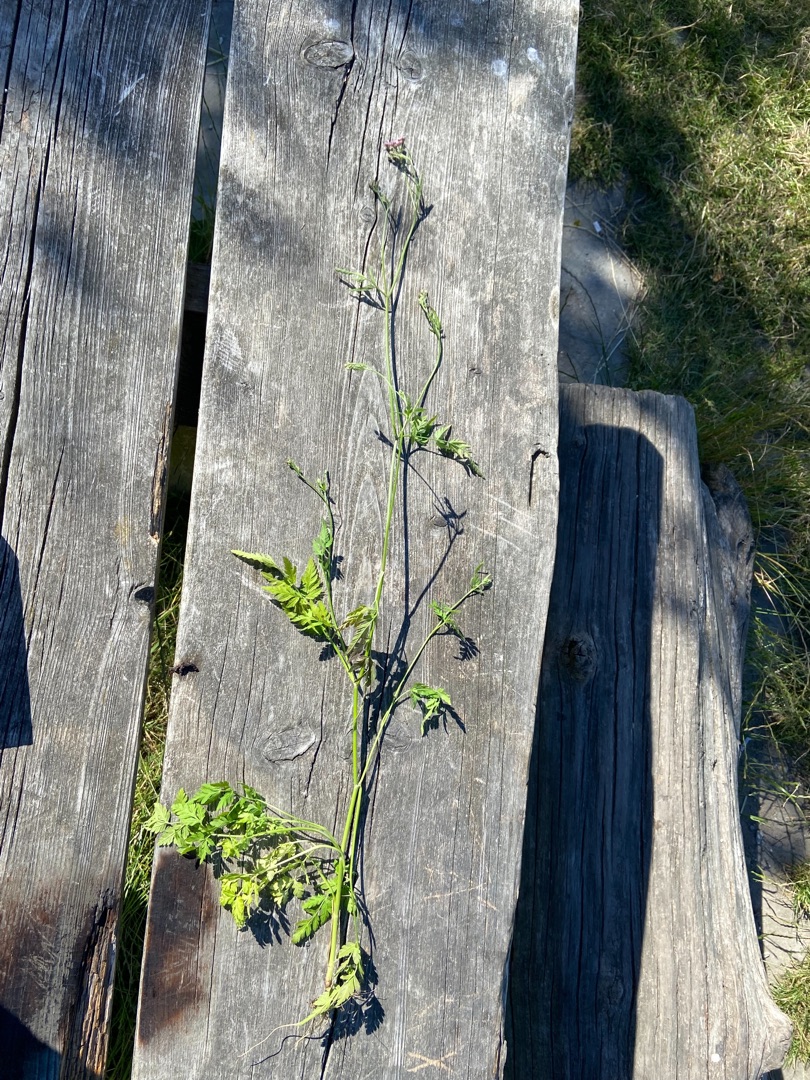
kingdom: Plantae
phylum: Tracheophyta
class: Magnoliopsida
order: Apiales
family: Apiaceae
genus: Torilis
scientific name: Torilis japonica
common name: Hvas randfrø
